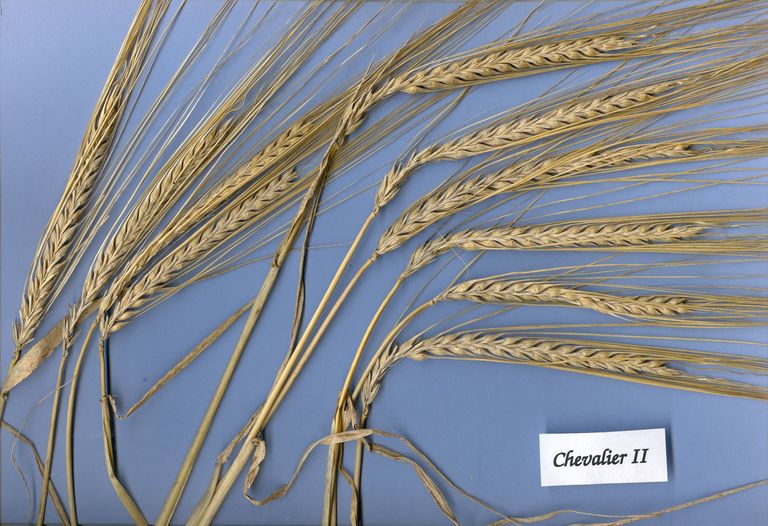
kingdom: Plantae
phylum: Tracheophyta
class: Liliopsida
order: Poales
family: Poaceae
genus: Hordeum
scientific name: Hordeum vulgare
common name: Common barley
